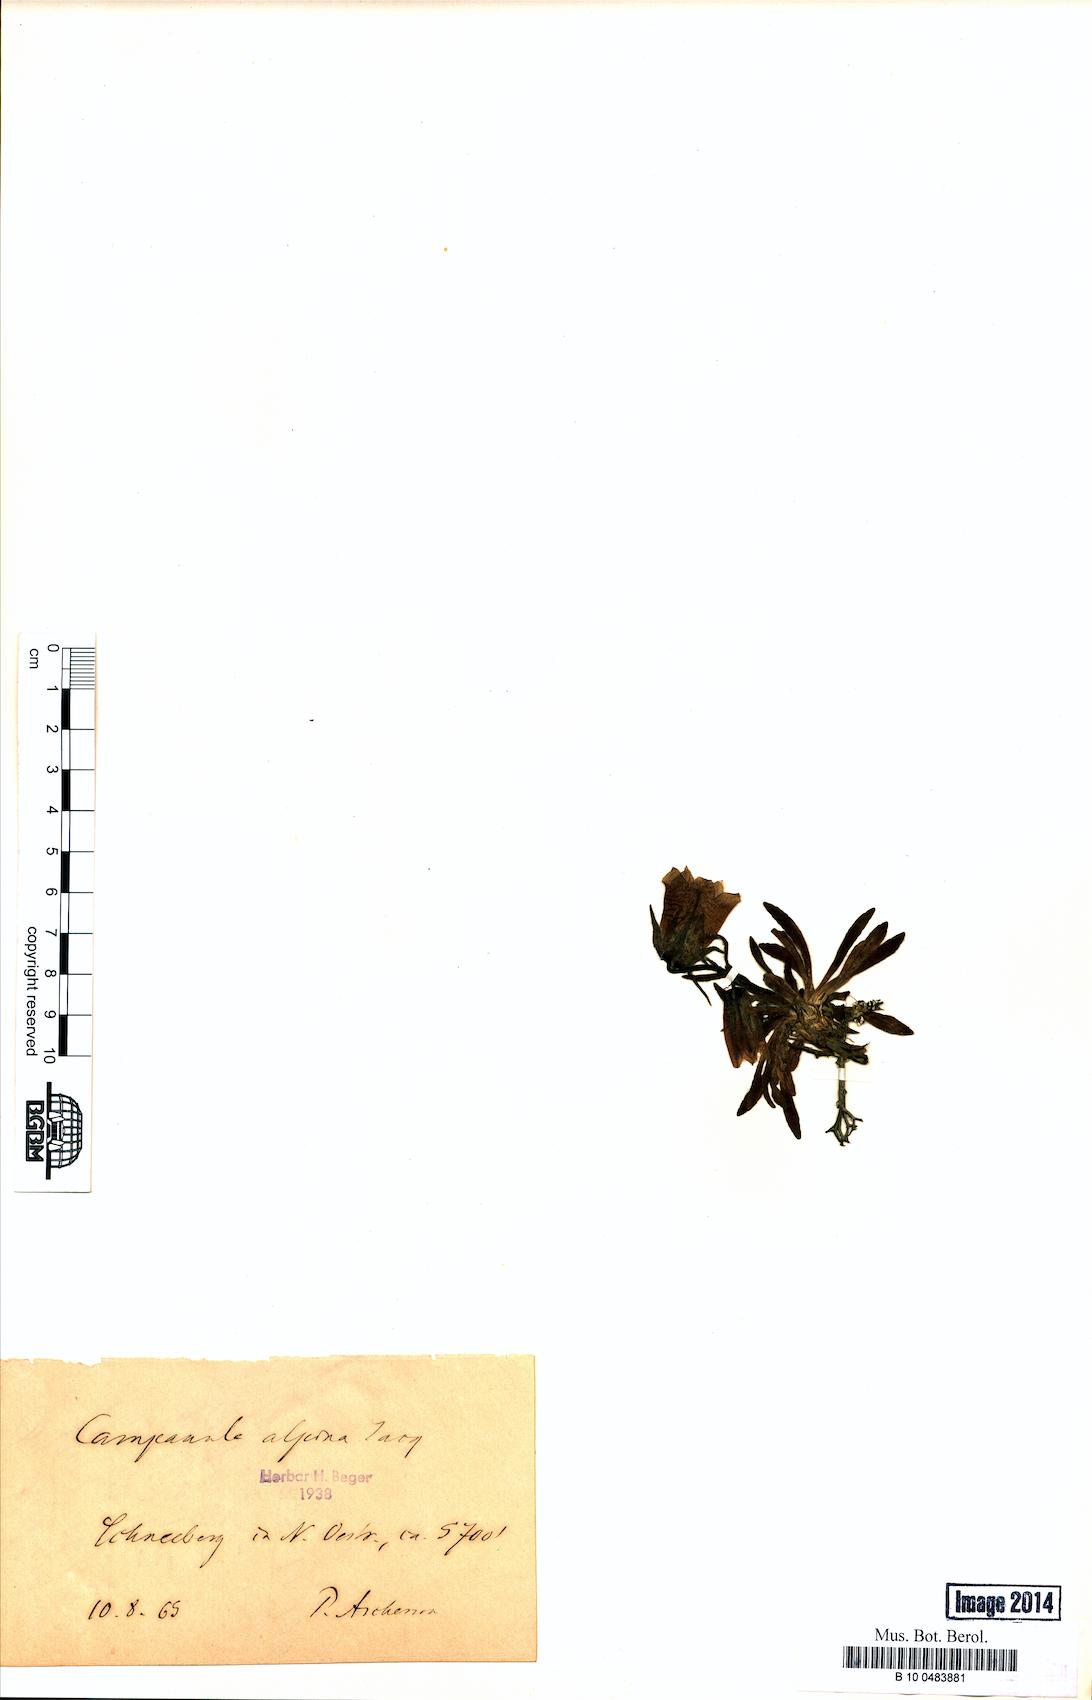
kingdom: Plantae
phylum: Tracheophyta
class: Magnoliopsida
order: Asterales
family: Campanulaceae
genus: Campanula
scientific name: Campanula alpina
